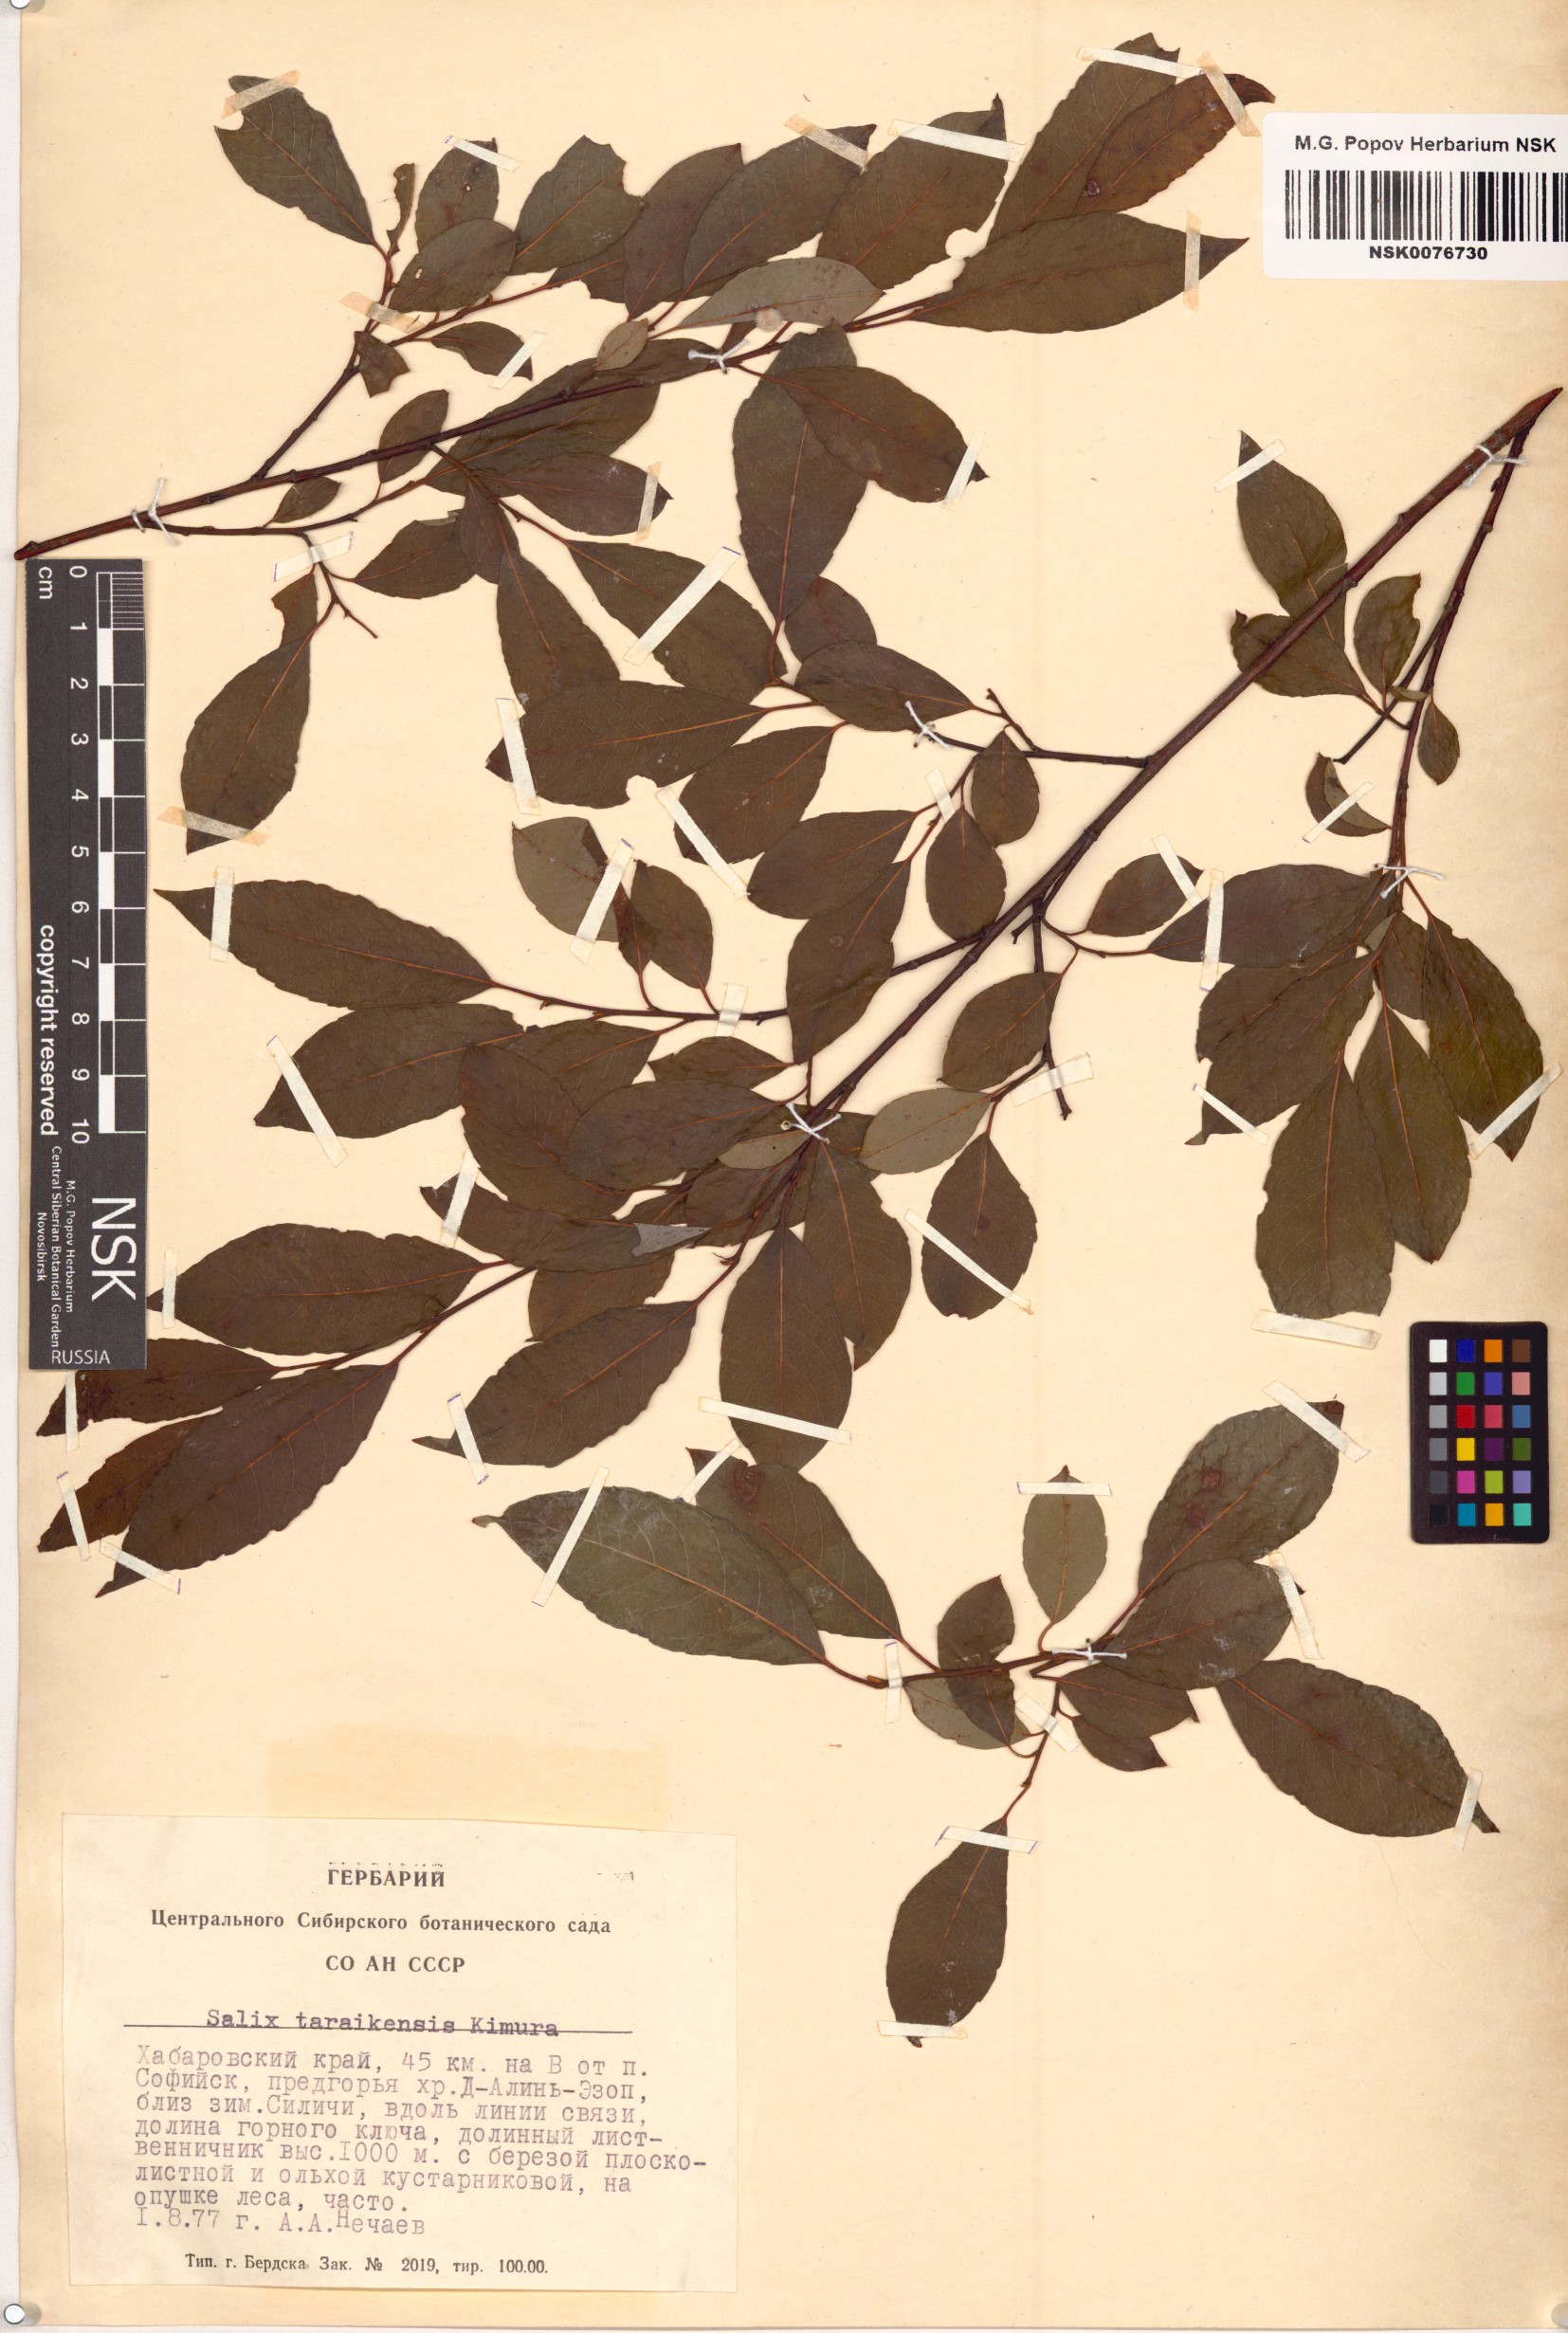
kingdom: Plantae
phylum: Tracheophyta
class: Magnoliopsida
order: Malpighiales
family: Salicaceae
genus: Salix
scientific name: Salix taraikensis
